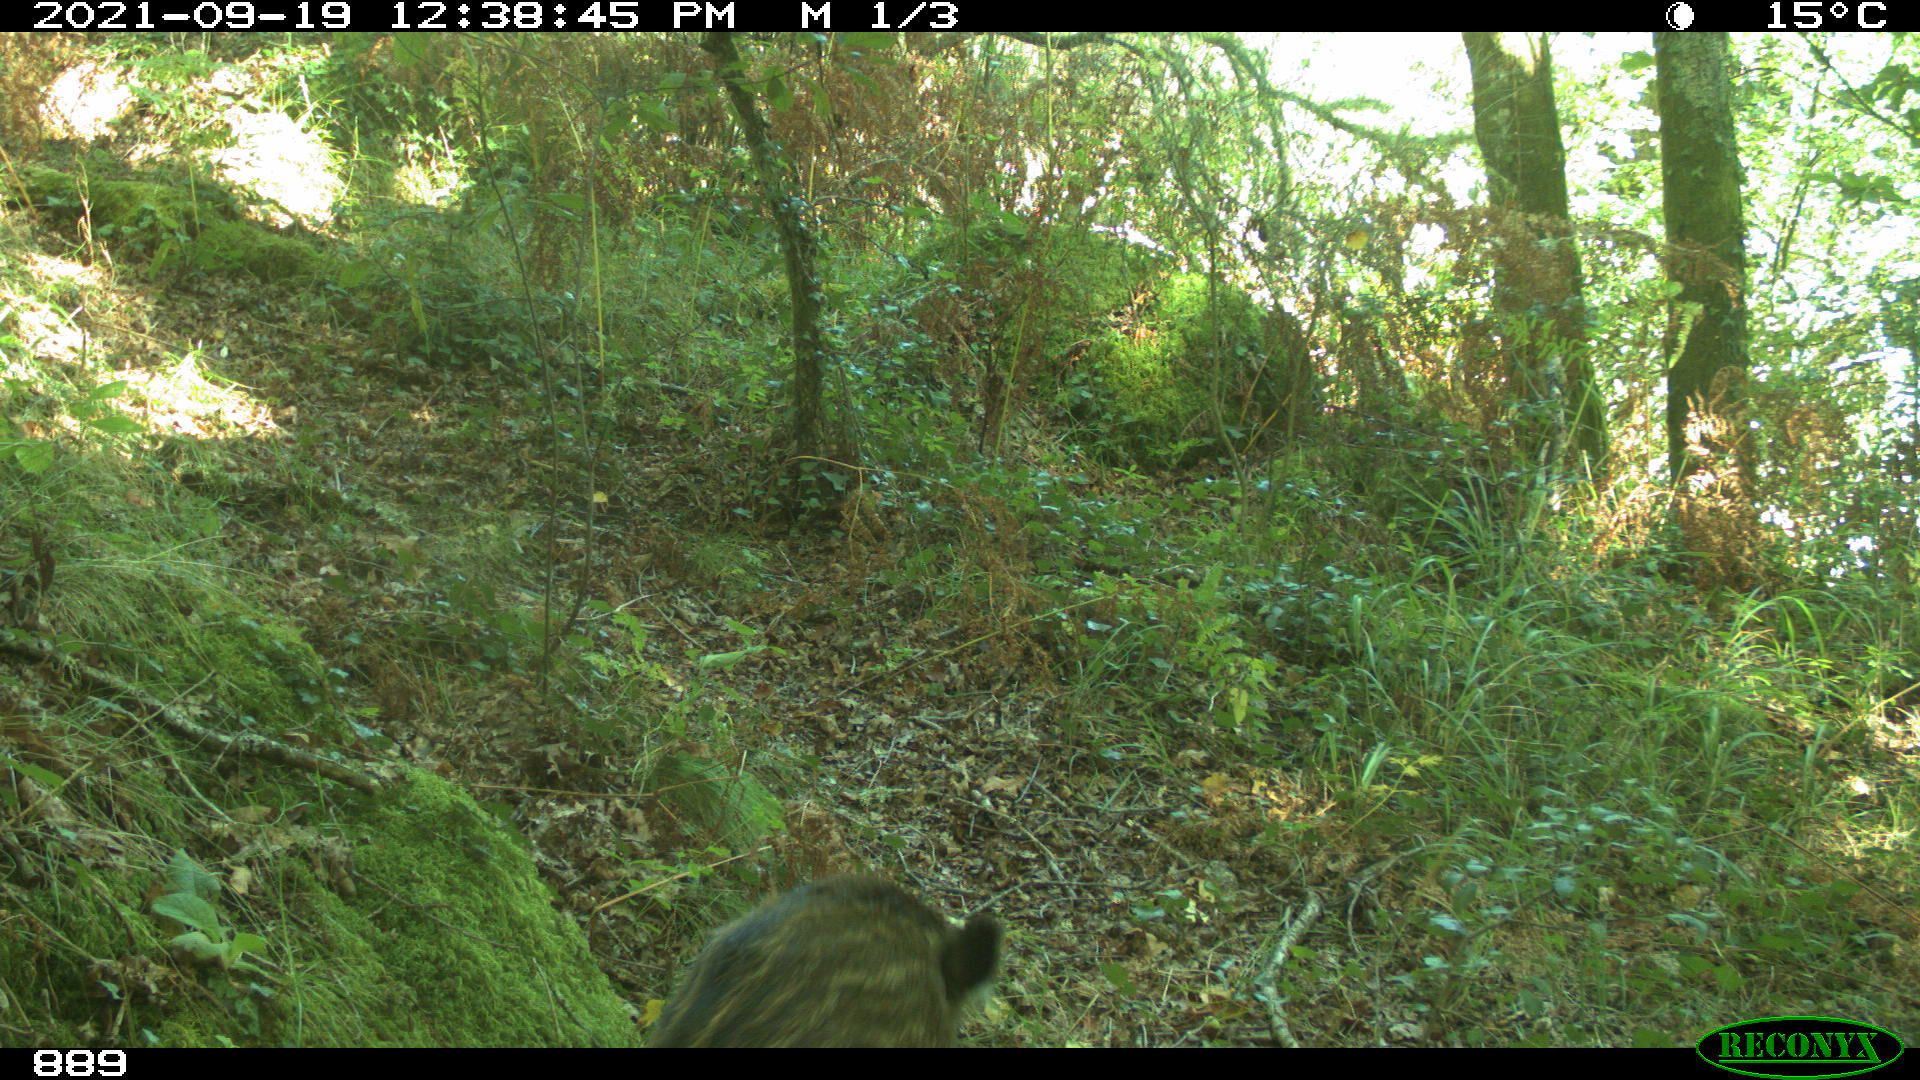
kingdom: Animalia
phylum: Chordata
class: Mammalia
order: Artiodactyla
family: Suidae
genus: Sus
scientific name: Sus scrofa
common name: Wild boar
